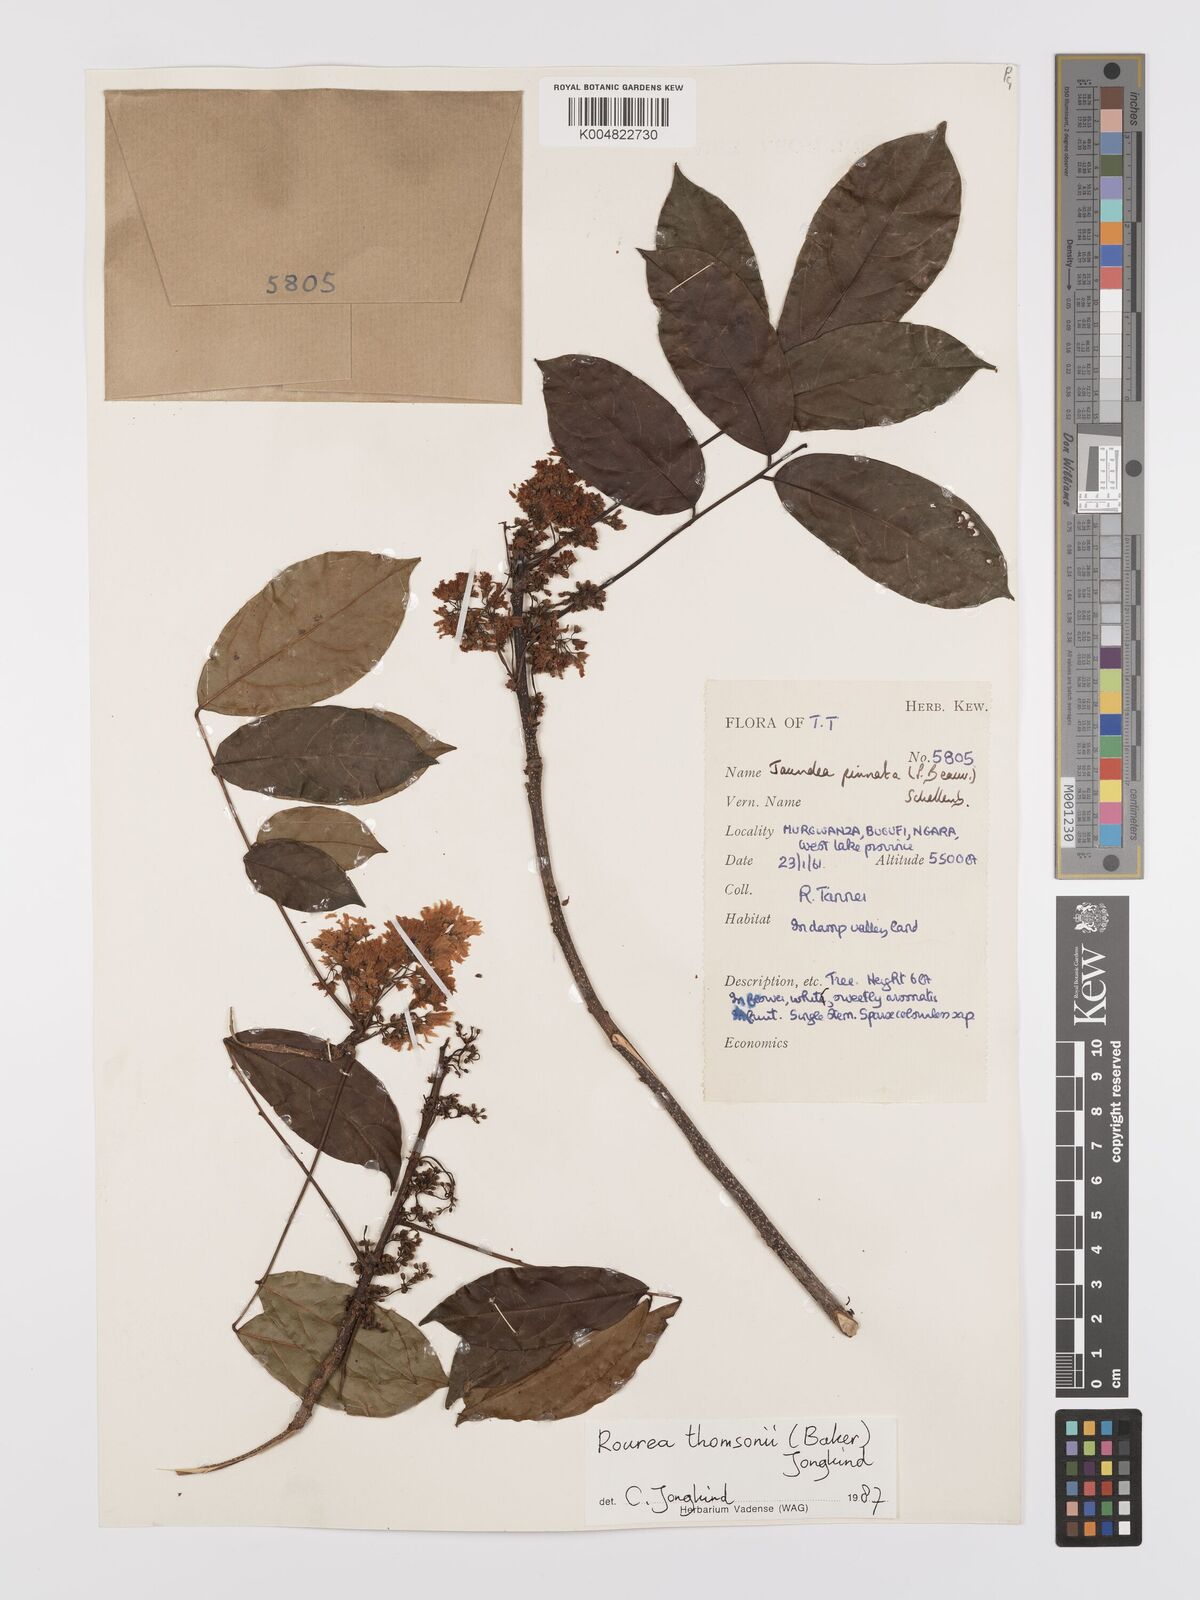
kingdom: Plantae
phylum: Tracheophyta
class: Magnoliopsida
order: Oxalidales
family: Connaraceae
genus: Rourea
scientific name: Rourea pinnata
